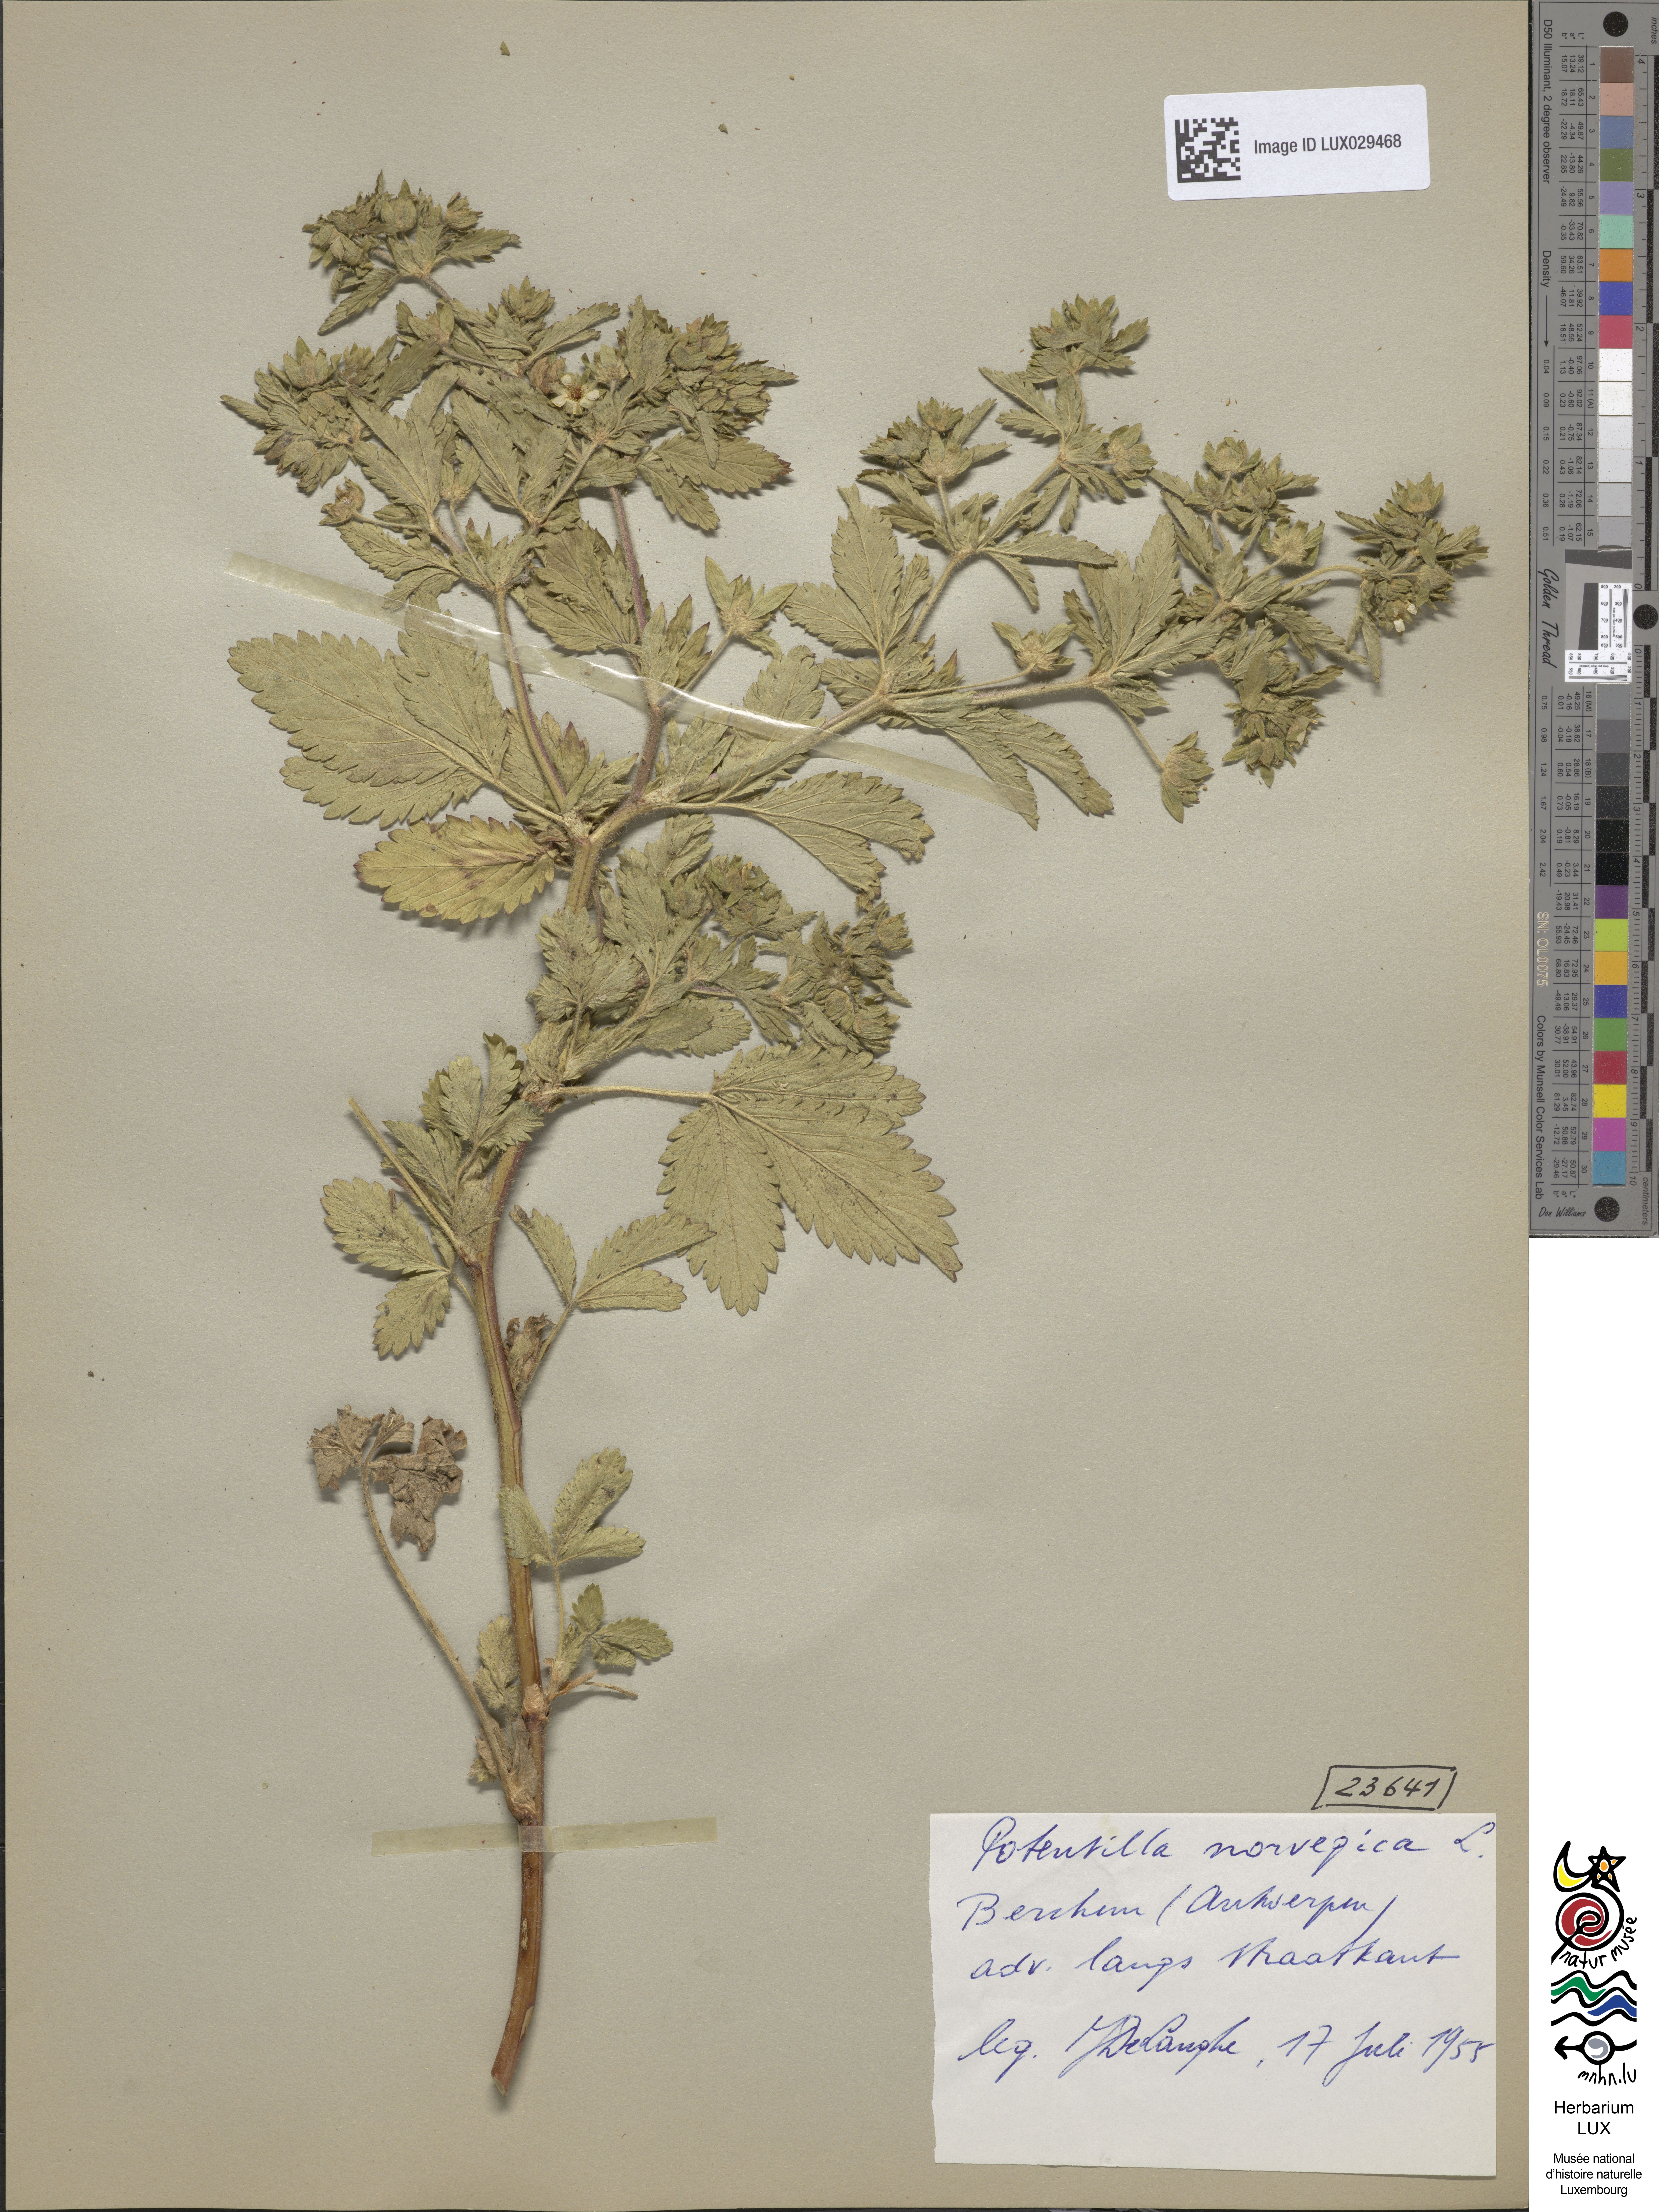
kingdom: Plantae
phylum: Tracheophyta
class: Magnoliopsida
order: Rosales
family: Rosaceae
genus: Potentilla
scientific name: Potentilla norvegica
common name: Ternate-leaved cinquefoil
